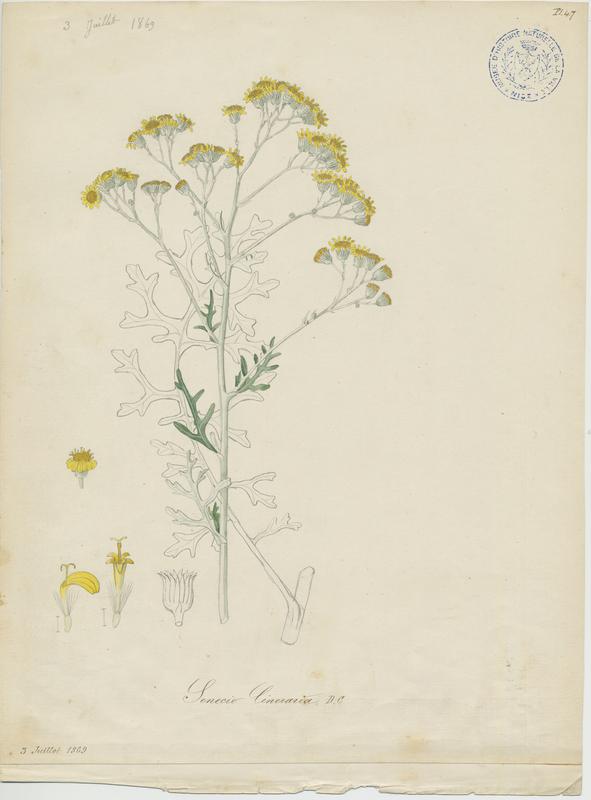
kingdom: Plantae
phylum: Tracheophyta
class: Magnoliopsida
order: Asterales
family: Asteraceae
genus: Jacobaea
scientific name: Jacobaea maritima
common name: Silver ragwort
